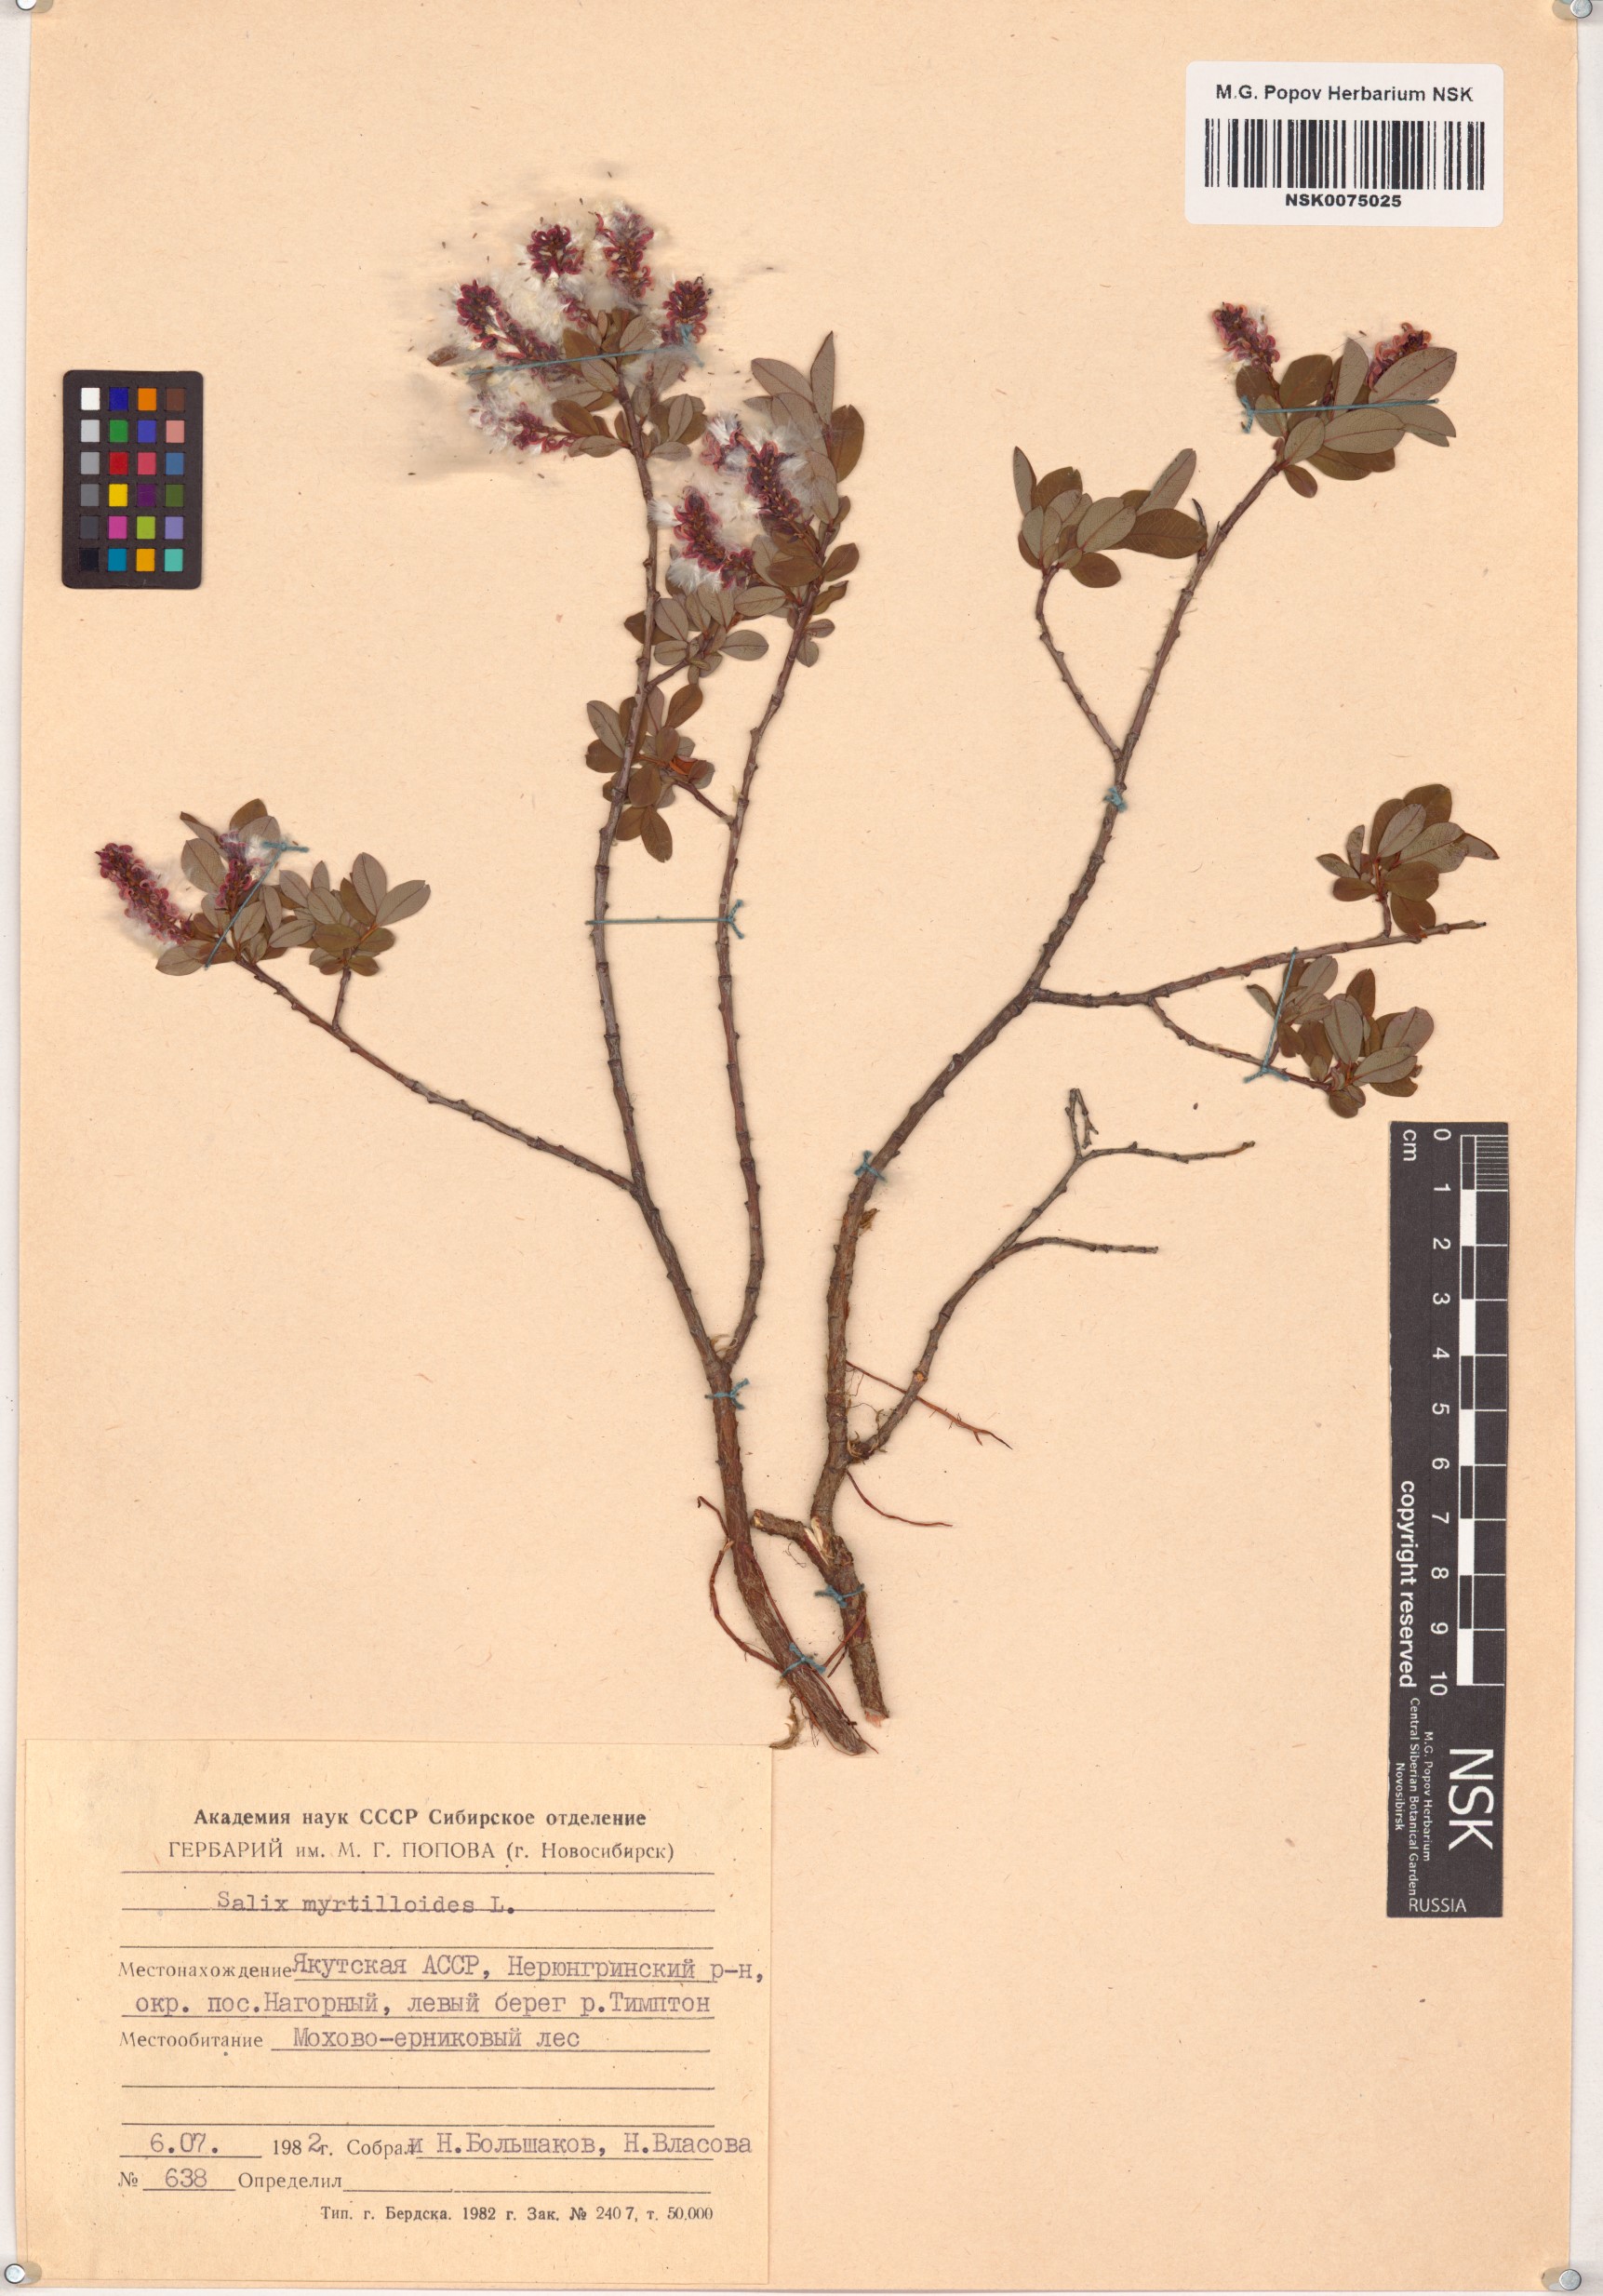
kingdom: Plantae
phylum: Tracheophyta
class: Magnoliopsida
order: Malpighiales
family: Salicaceae
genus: Salix
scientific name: Salix myrtilloides
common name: Myrtle-leaved willow
